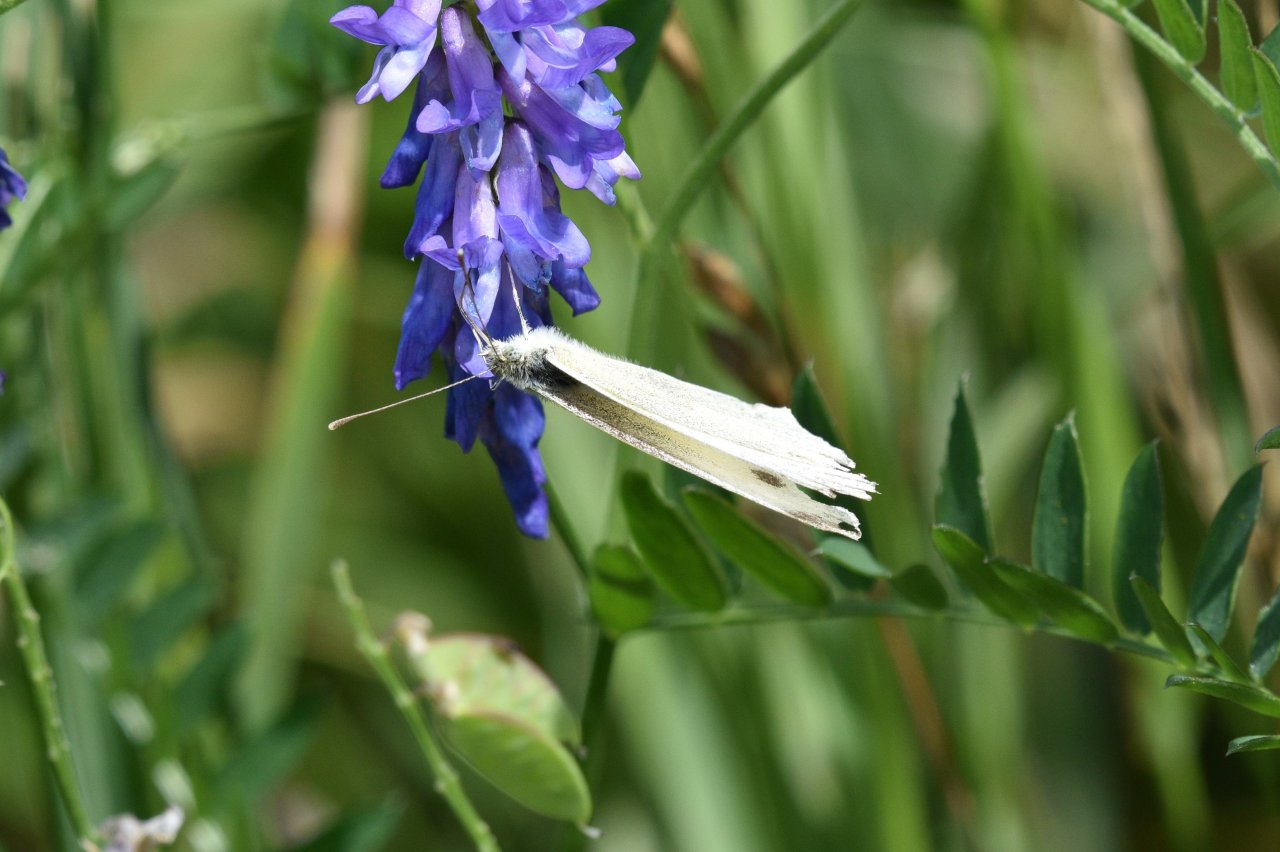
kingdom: Animalia
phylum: Arthropoda
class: Insecta
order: Lepidoptera
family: Pieridae
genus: Pieris
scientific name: Pieris rapae
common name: Cabbage White
